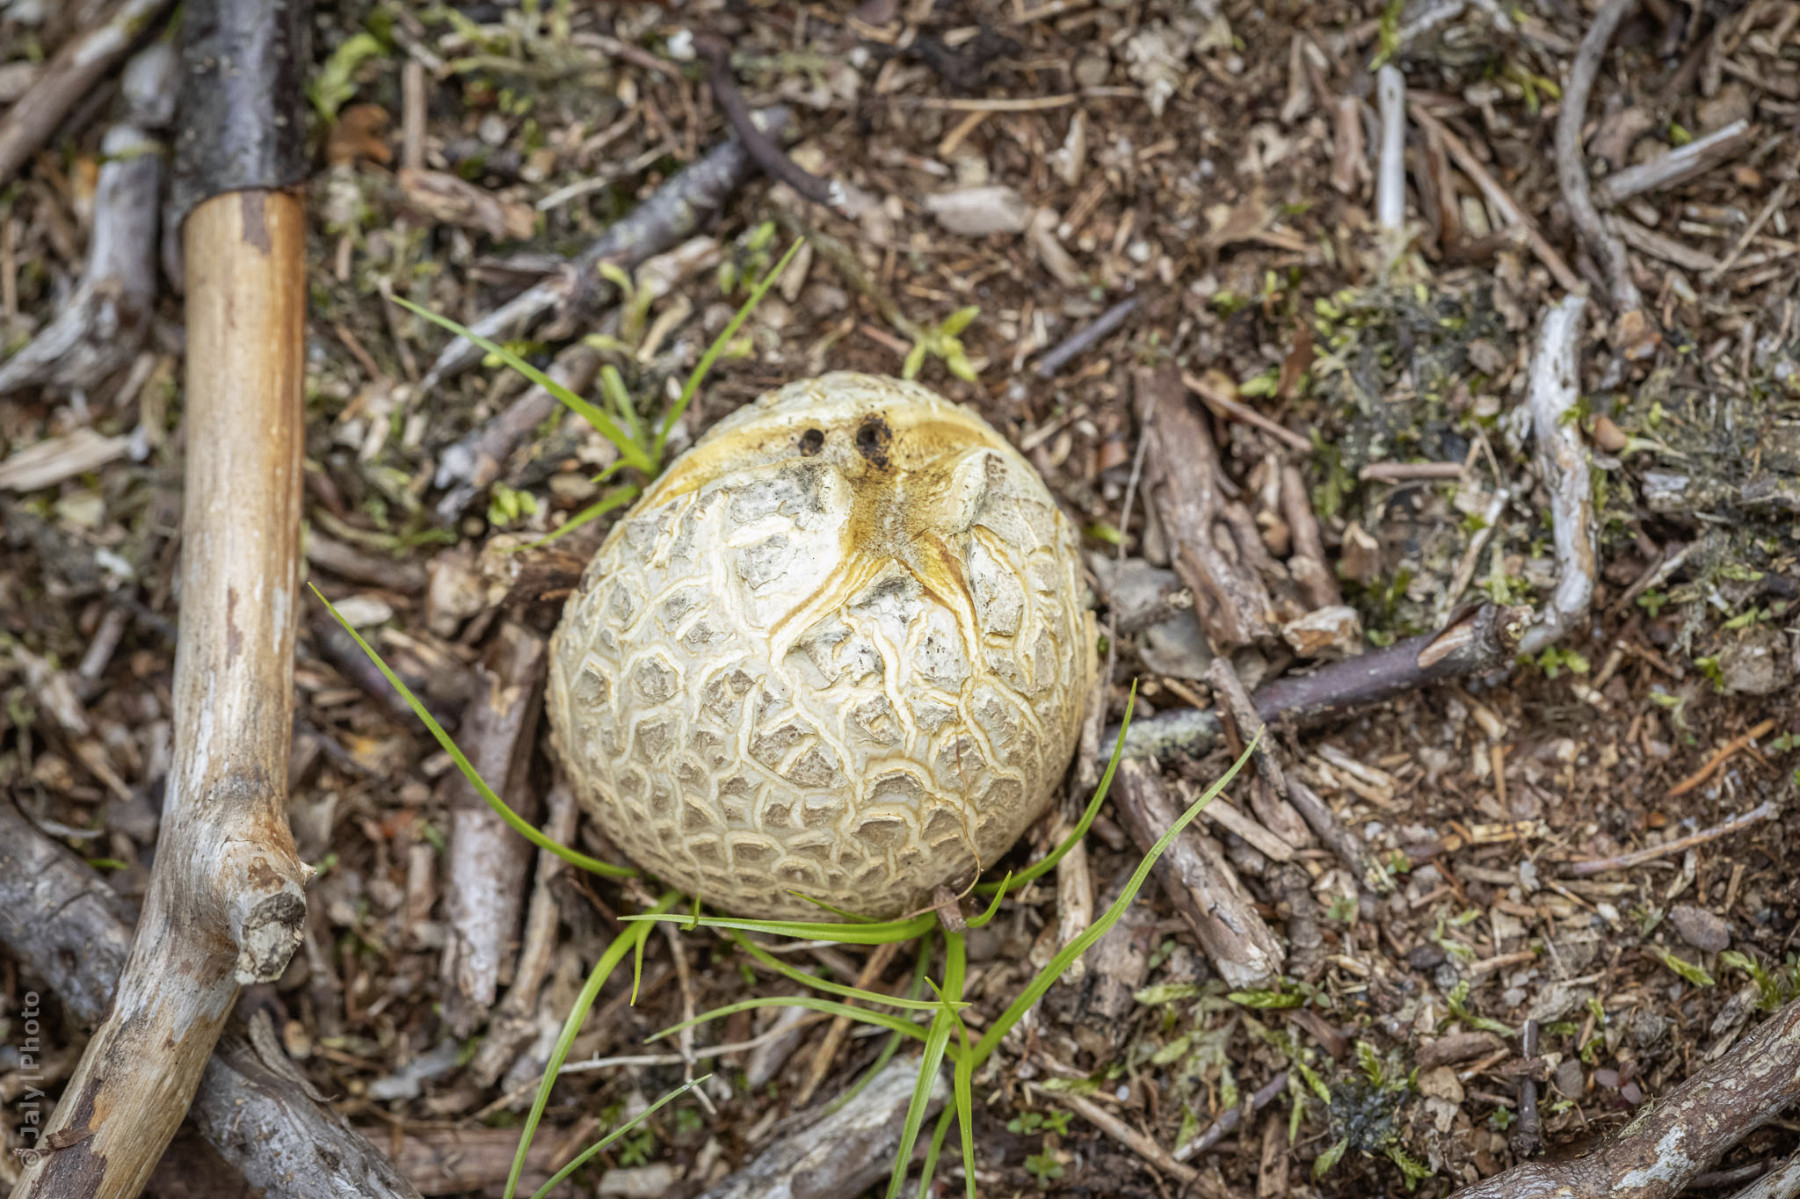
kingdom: Fungi
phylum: Basidiomycota
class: Agaricomycetes
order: Boletales
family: Sclerodermataceae
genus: Scleroderma
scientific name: Scleroderma citrinum
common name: almindelig bruskbold
